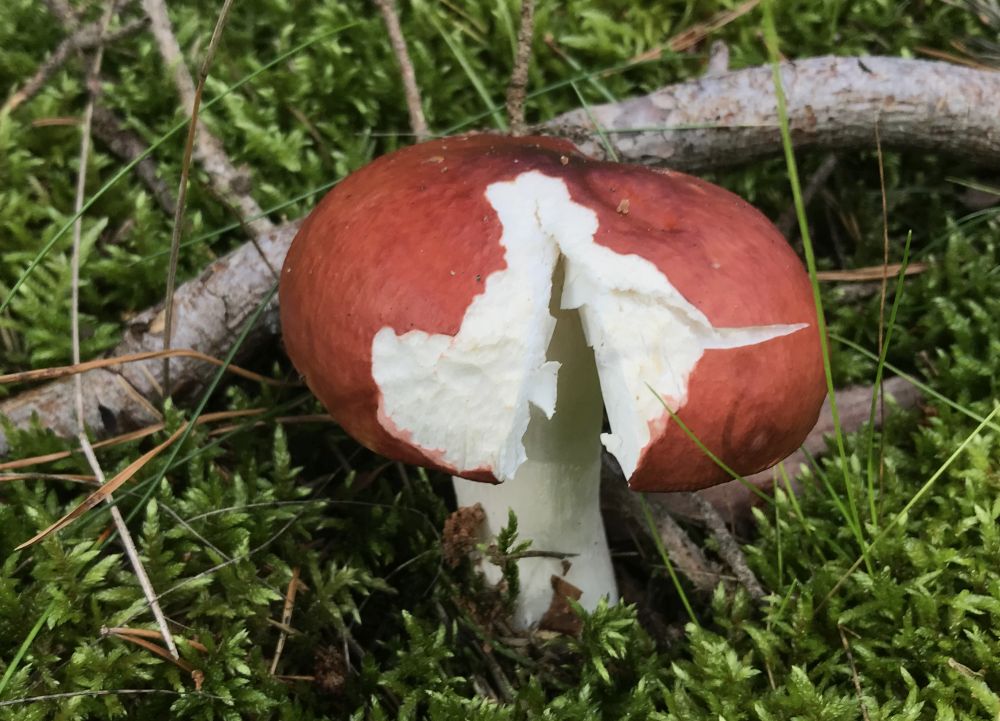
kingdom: Fungi
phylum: Basidiomycota
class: Agaricomycetes
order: Russulales
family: Russulaceae
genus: Russula
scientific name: Russula paludosa
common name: prægtig skørhat
